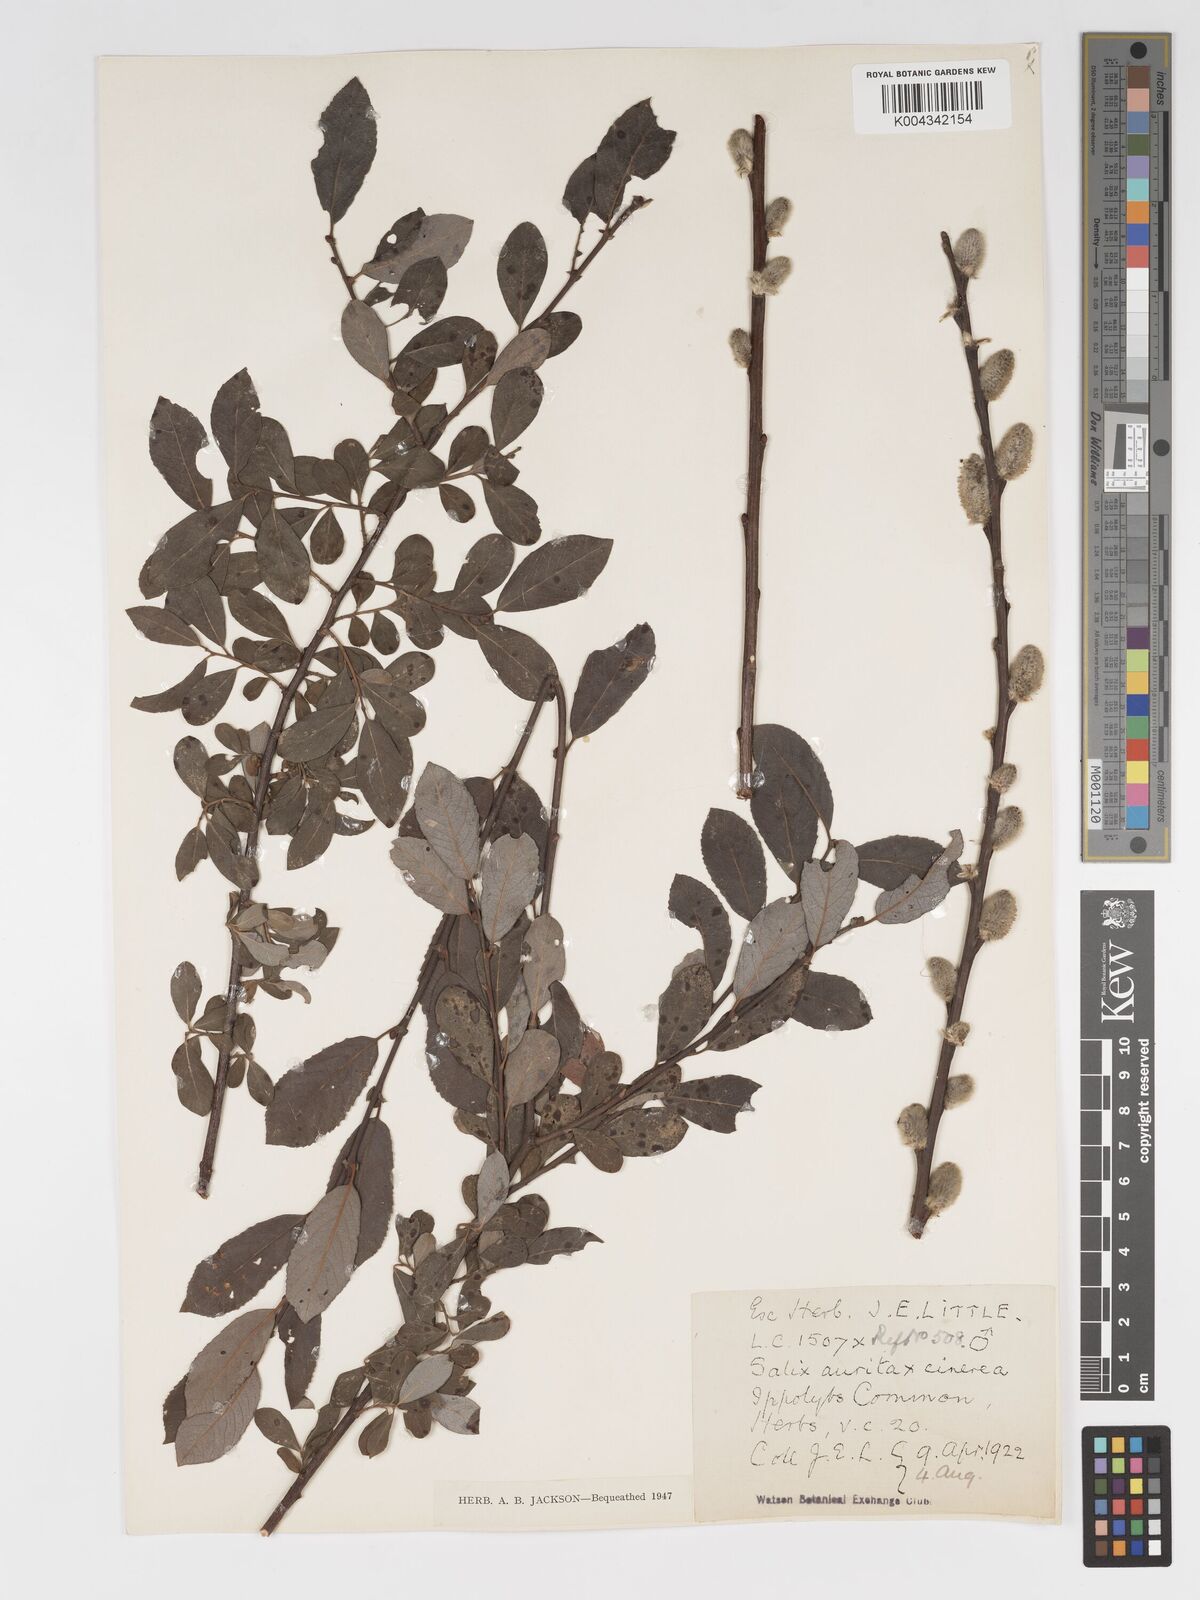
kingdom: Plantae
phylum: Tracheophyta
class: Magnoliopsida
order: Malpighiales
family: Salicaceae
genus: Salix
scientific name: Salix
